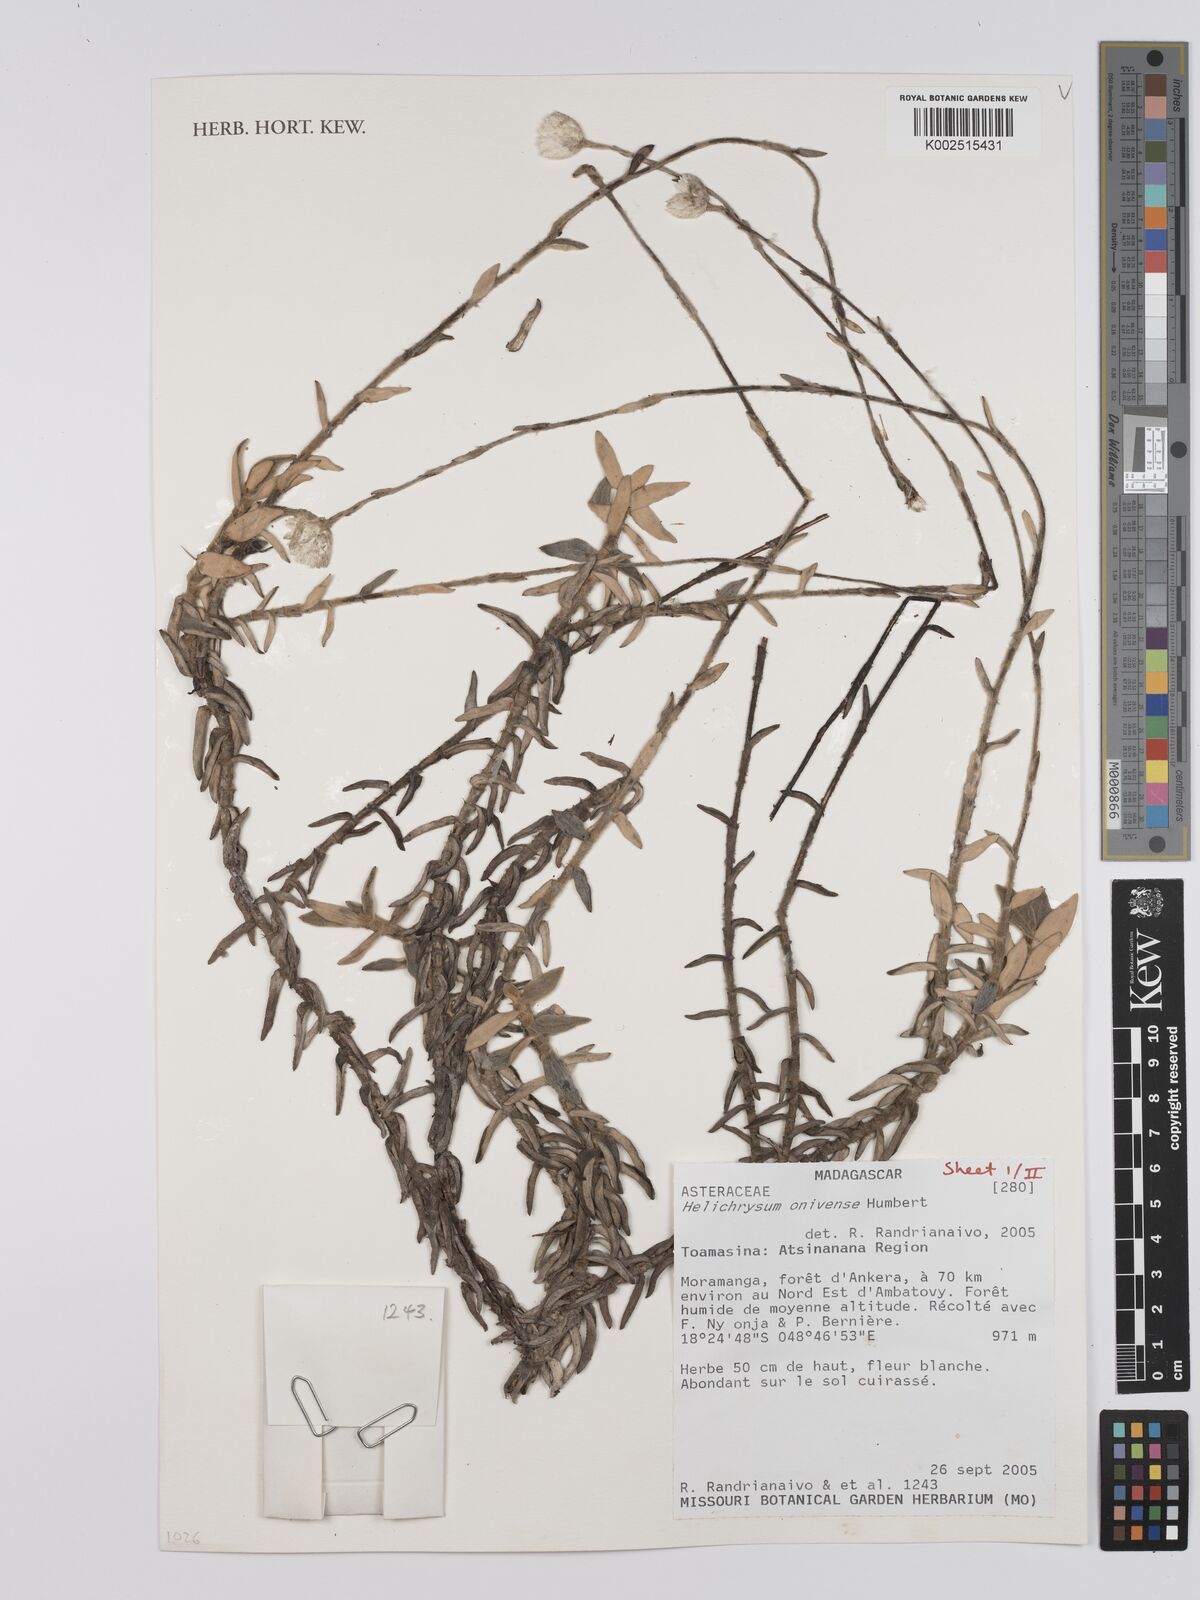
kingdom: Plantae
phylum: Tracheophyta
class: Magnoliopsida
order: Asterales
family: Asteraceae
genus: Helichrysum
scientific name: Helichrysum onivense
